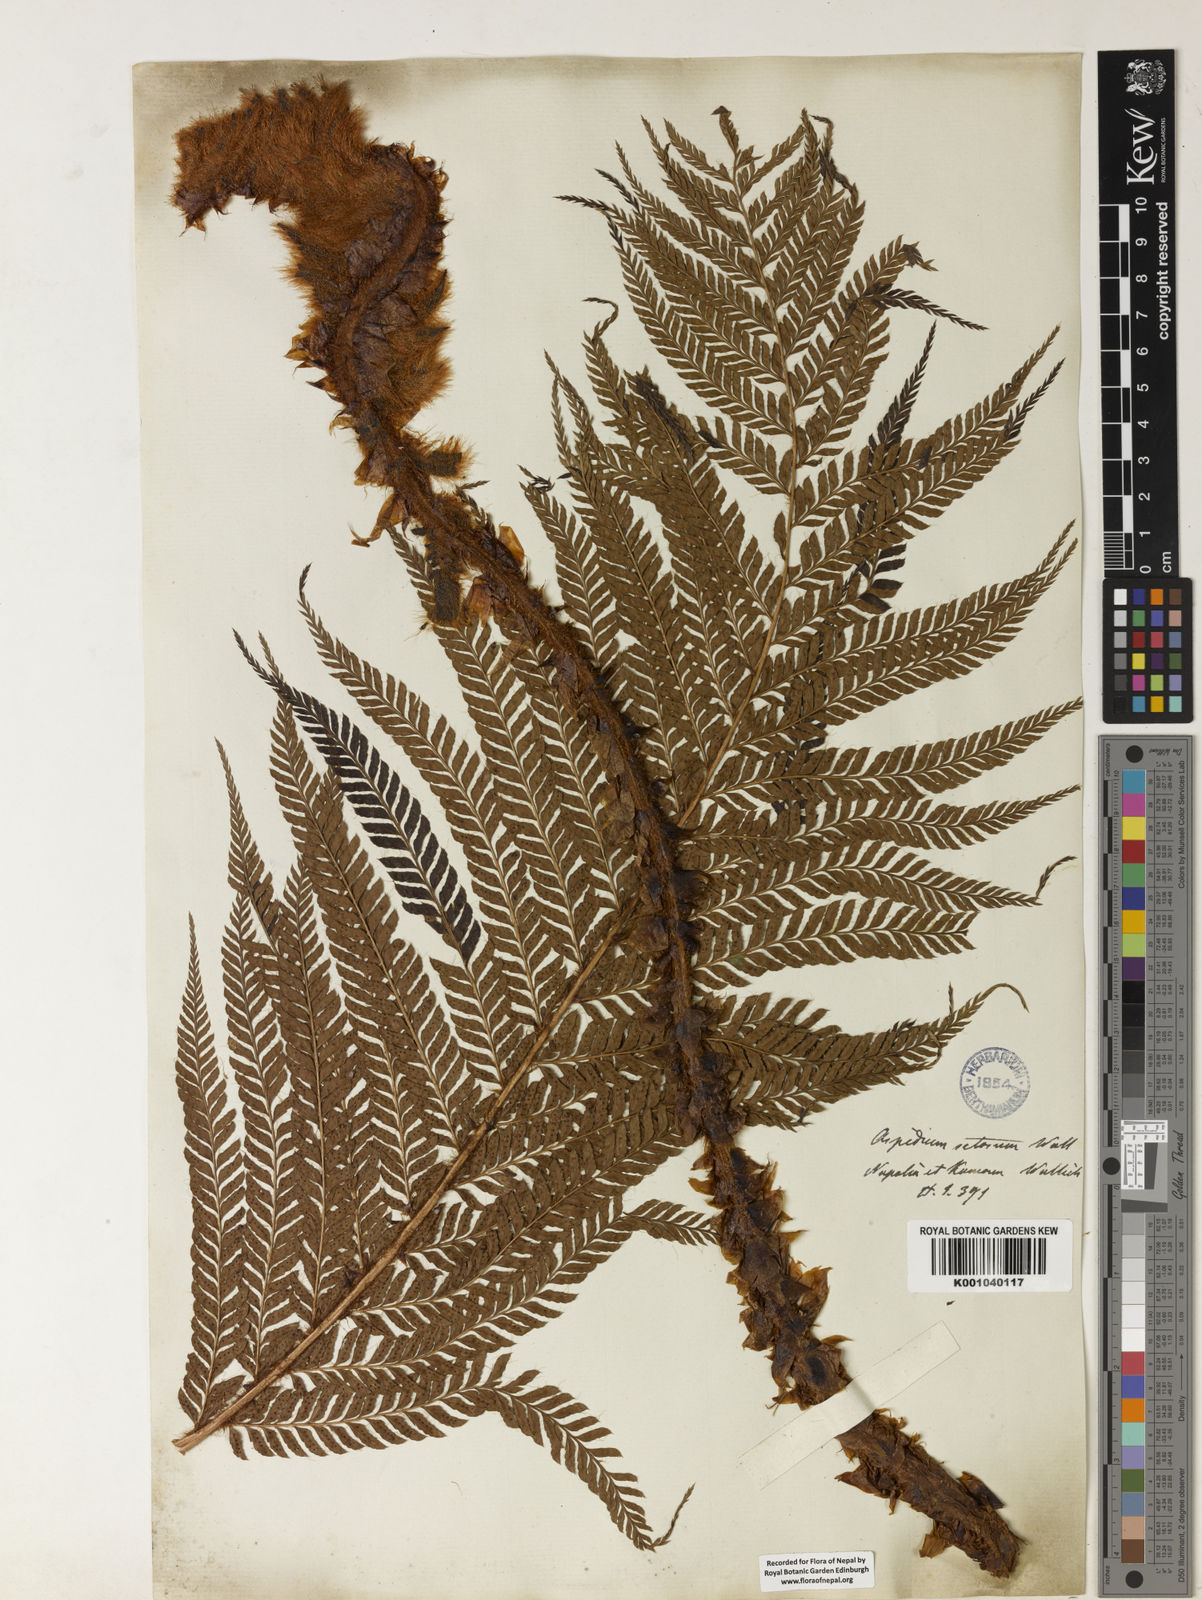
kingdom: Plantae
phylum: Tracheophyta
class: Polypodiopsida
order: Polypodiales
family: Dryopteridaceae
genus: Polystichum
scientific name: Polystichum
